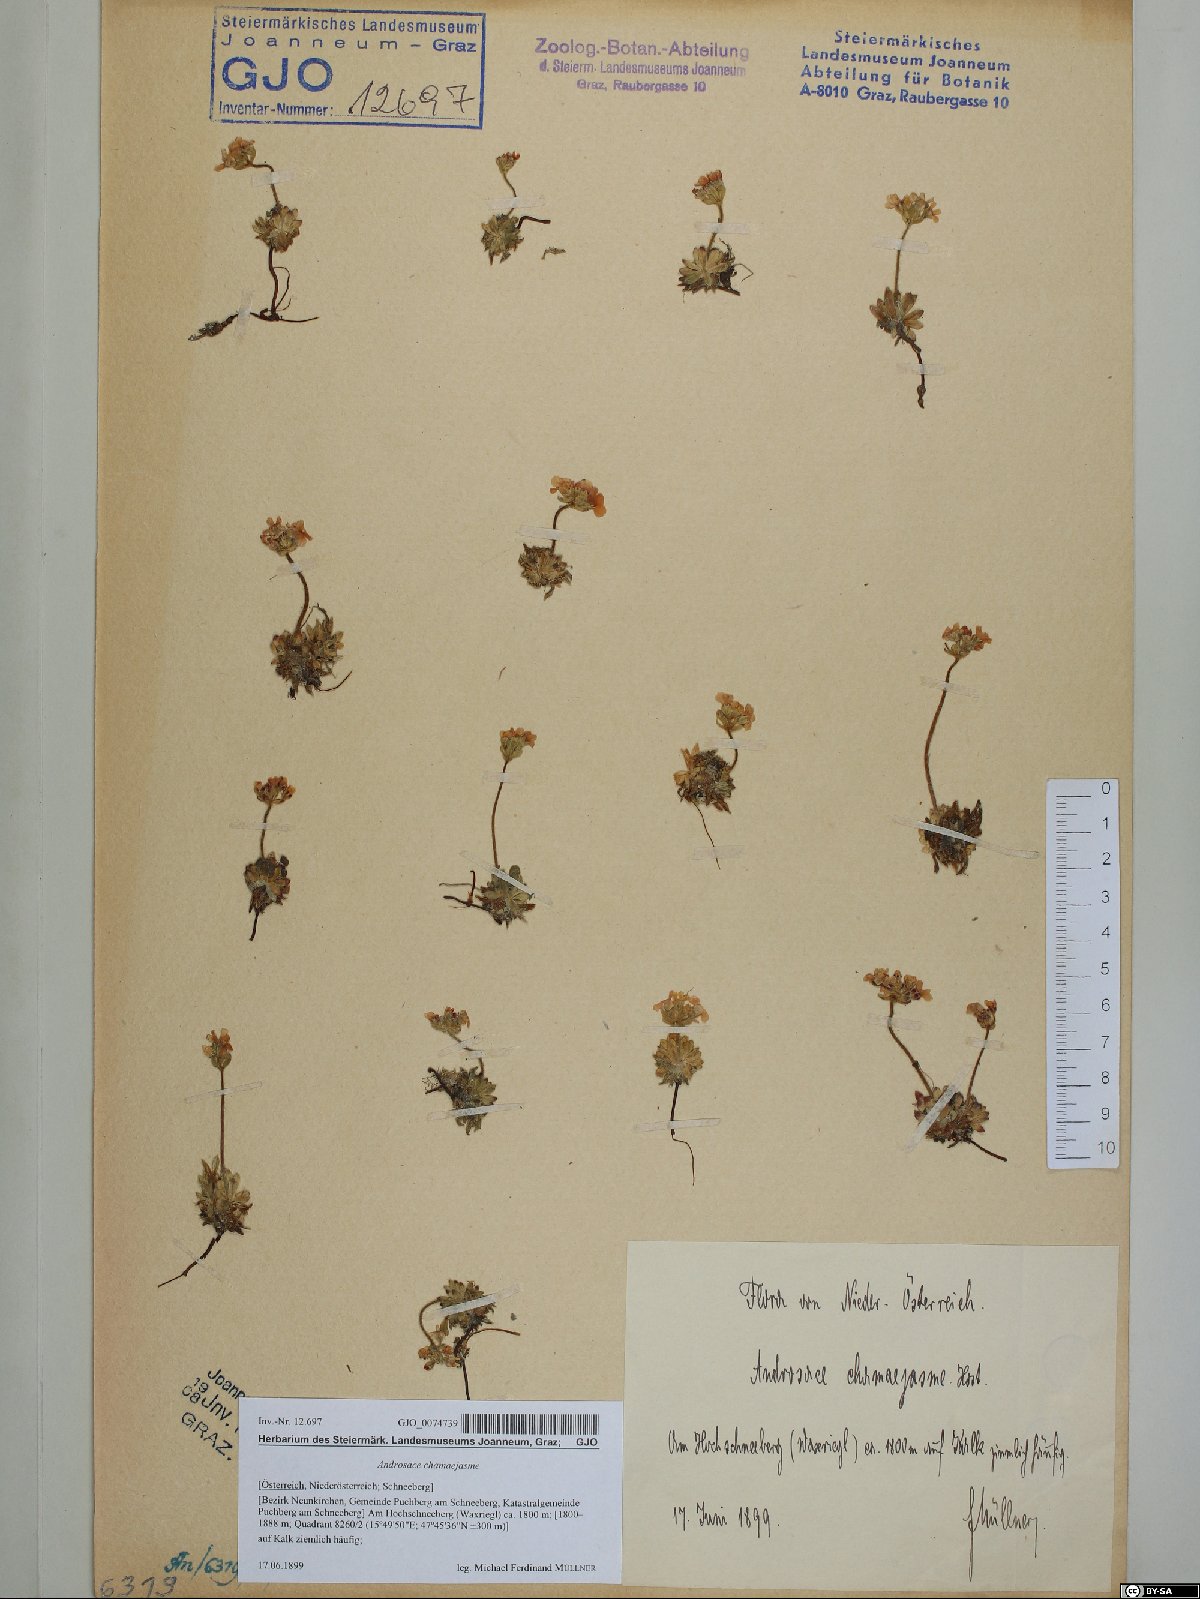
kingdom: Plantae
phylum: Tracheophyta
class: Magnoliopsida
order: Ericales
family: Primulaceae
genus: Androsace
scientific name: Androsace chamaejasme
